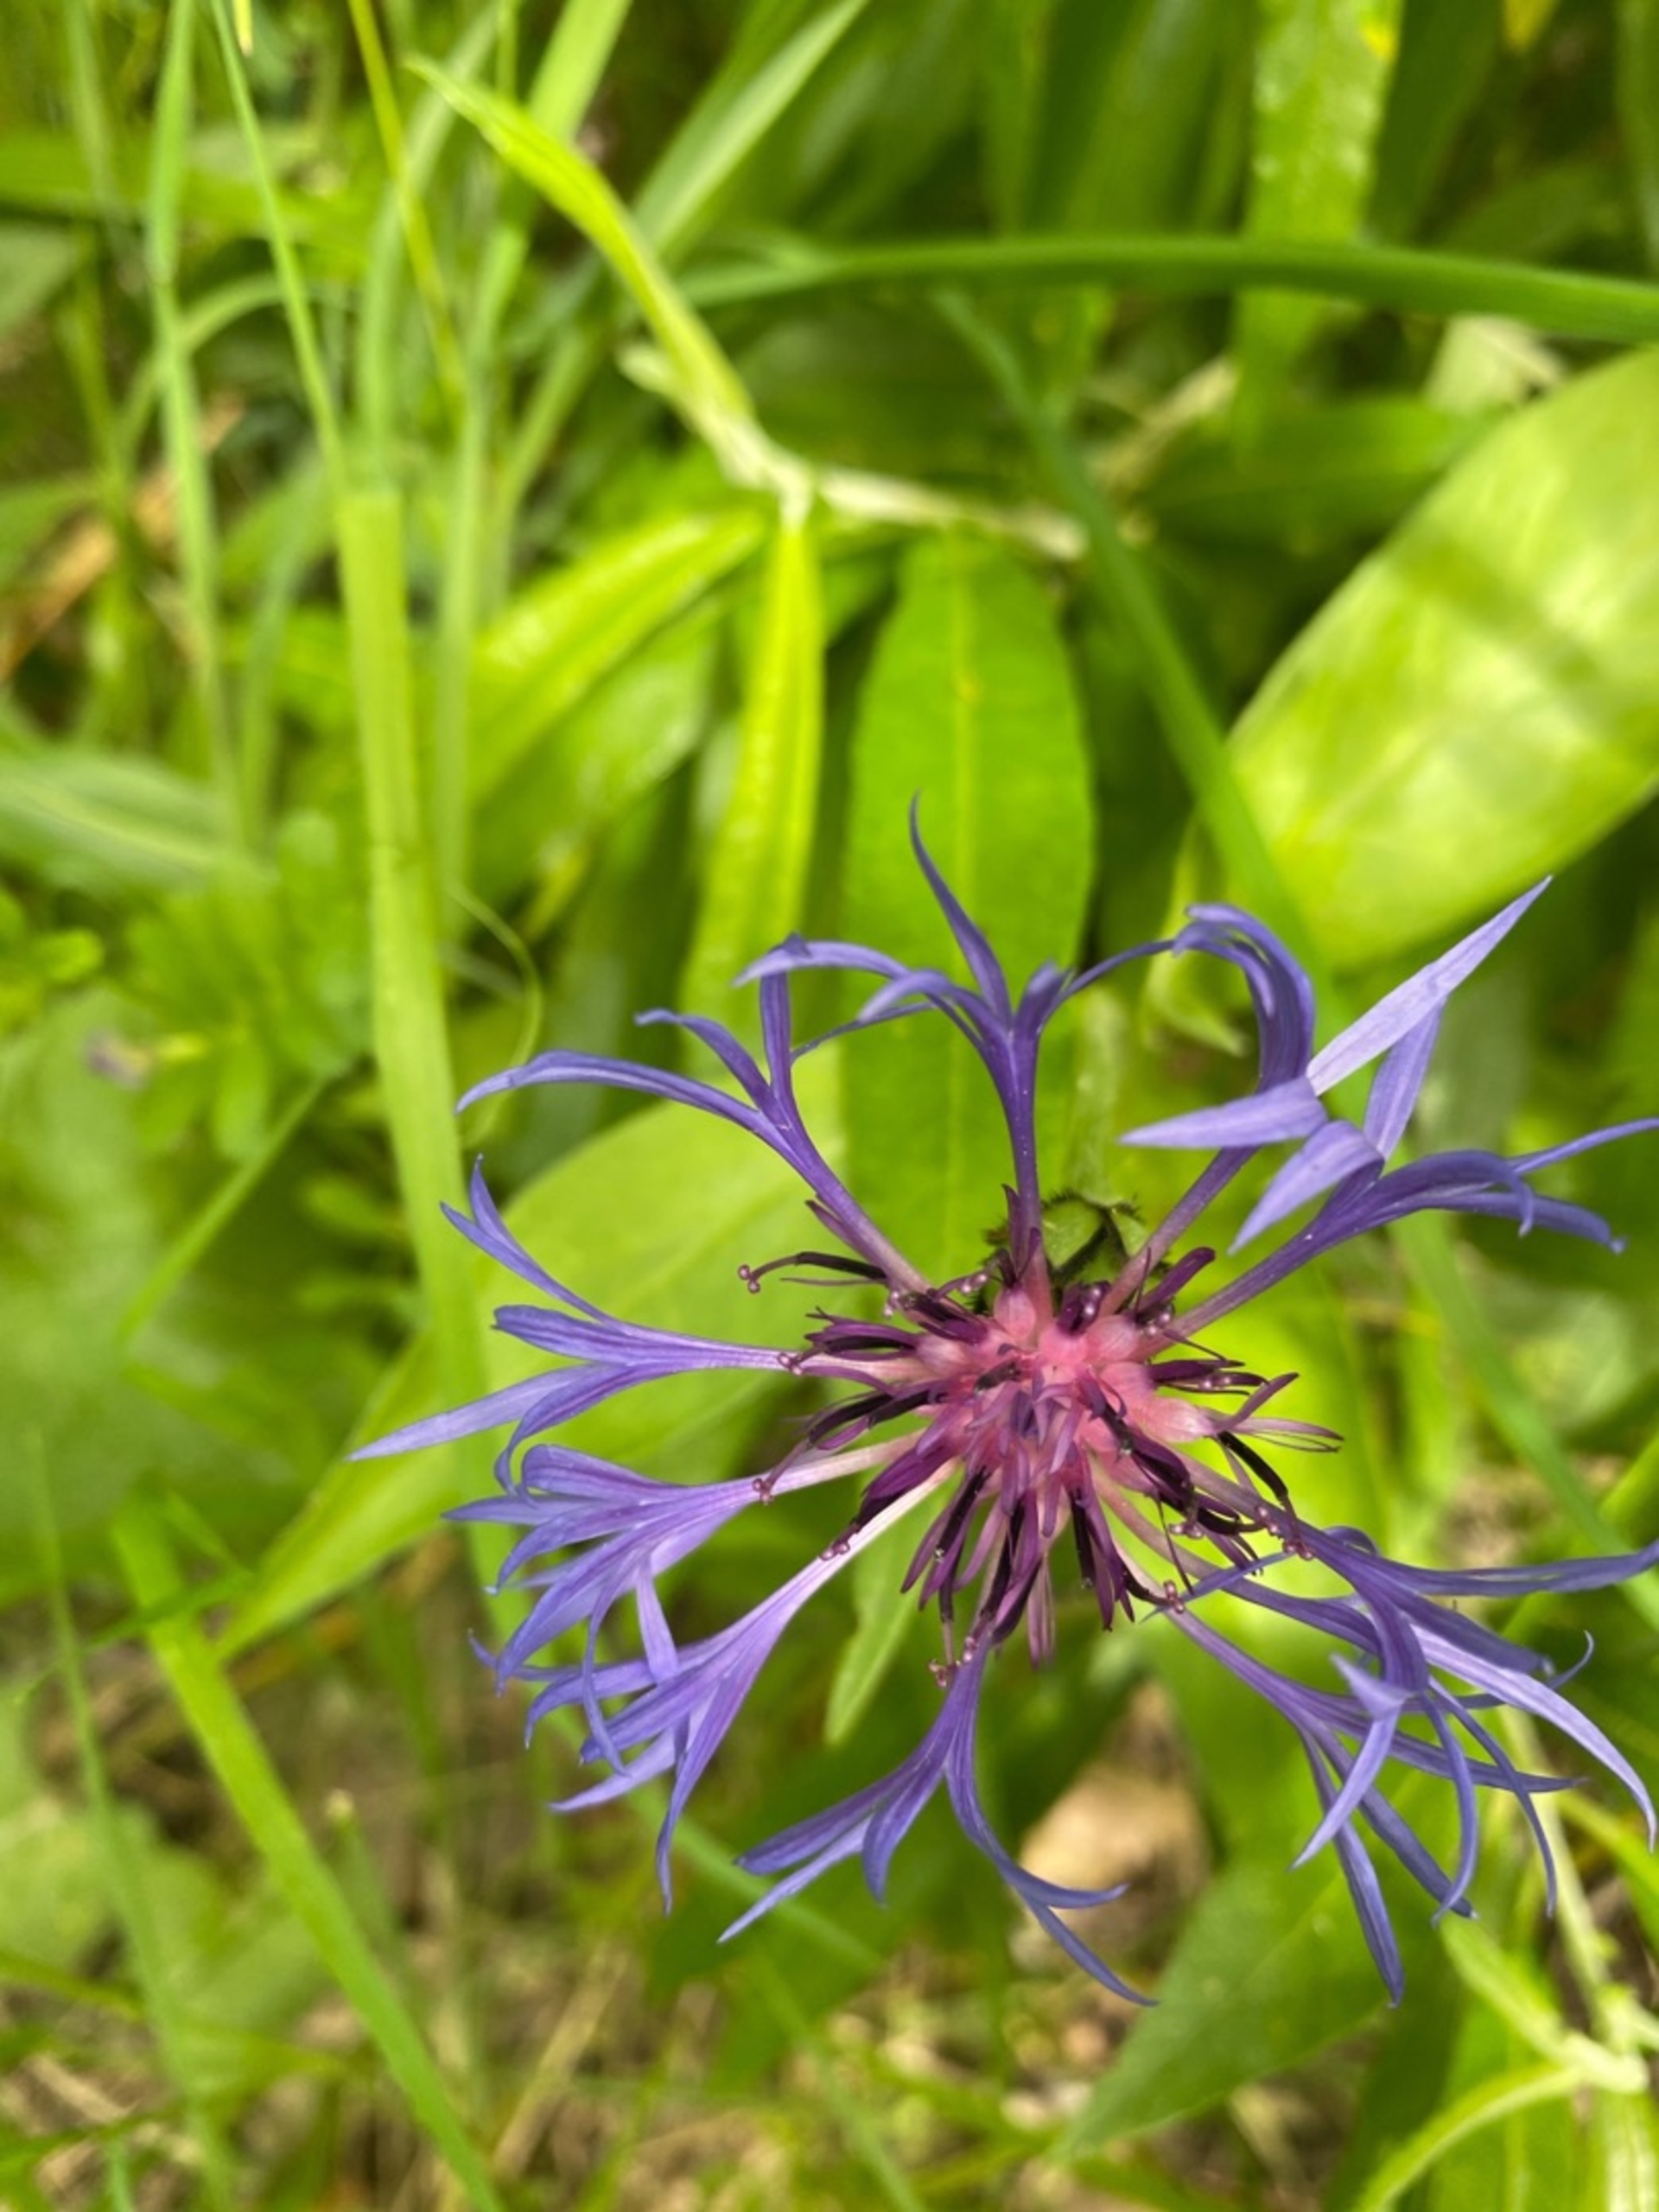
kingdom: Plantae
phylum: Tracheophyta
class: Magnoliopsida
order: Asterales
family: Asteraceae
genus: Centaurea
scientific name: Centaurea montana
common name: Bjerg-knopurt
